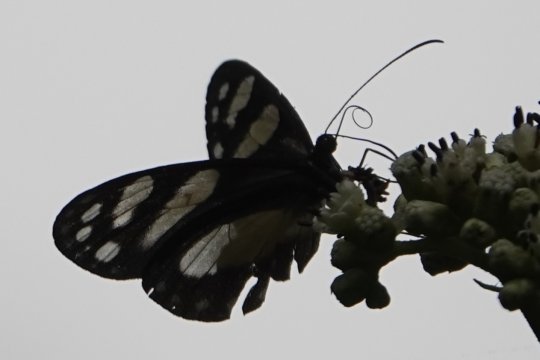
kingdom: Animalia
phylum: Arthropoda
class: Insecta
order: Lepidoptera
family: Nymphalidae
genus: Oleria
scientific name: Oleria zelica
